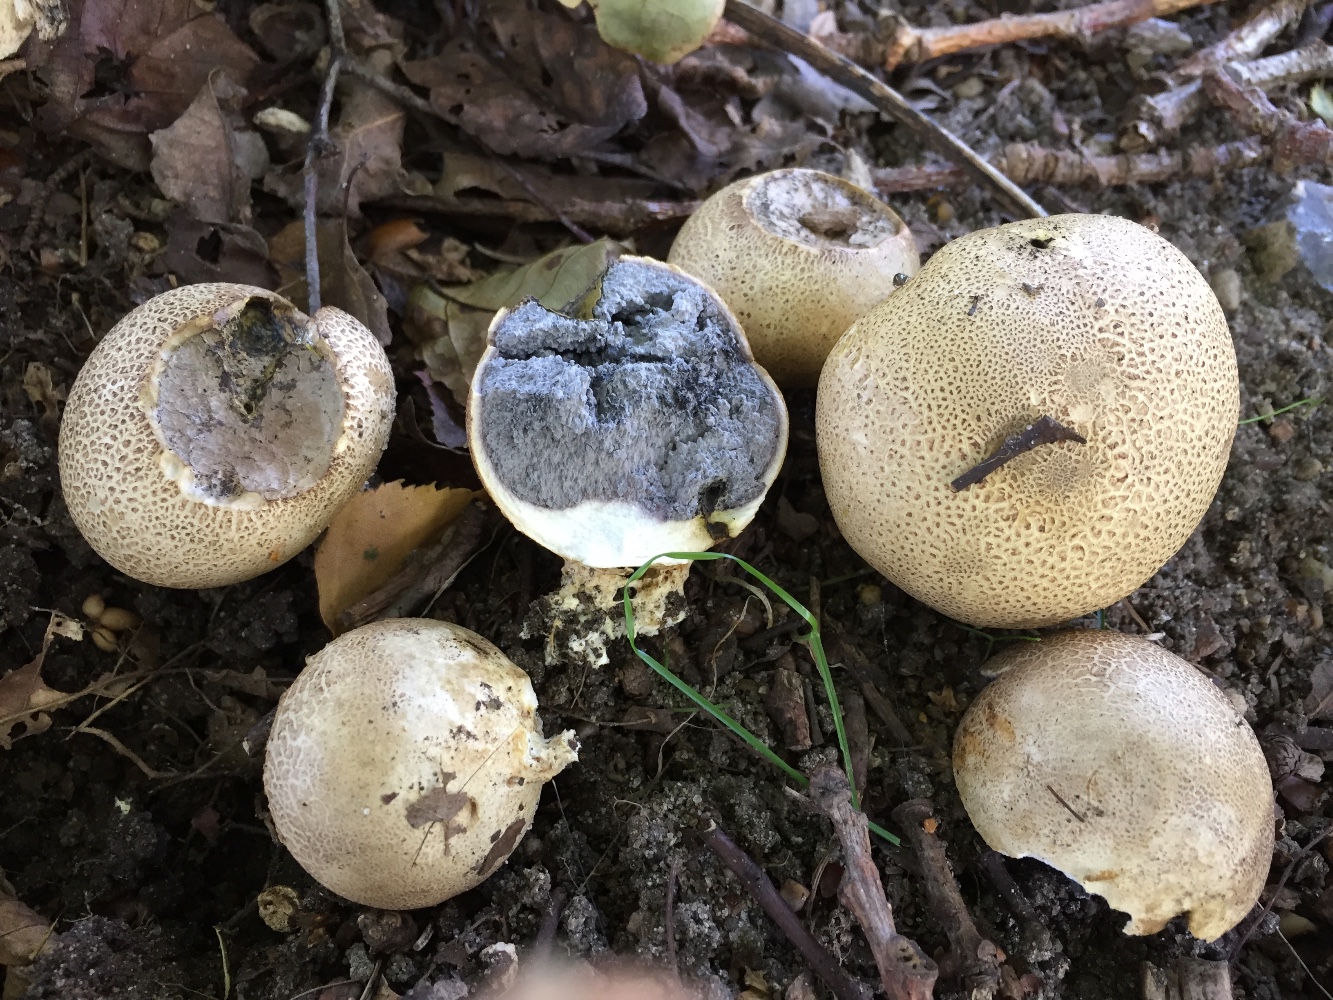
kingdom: Fungi
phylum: Basidiomycota
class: Agaricomycetes
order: Boletales
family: Sclerodermataceae
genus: Scleroderma
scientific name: Scleroderma citrinum
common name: almindelig bruskbold
